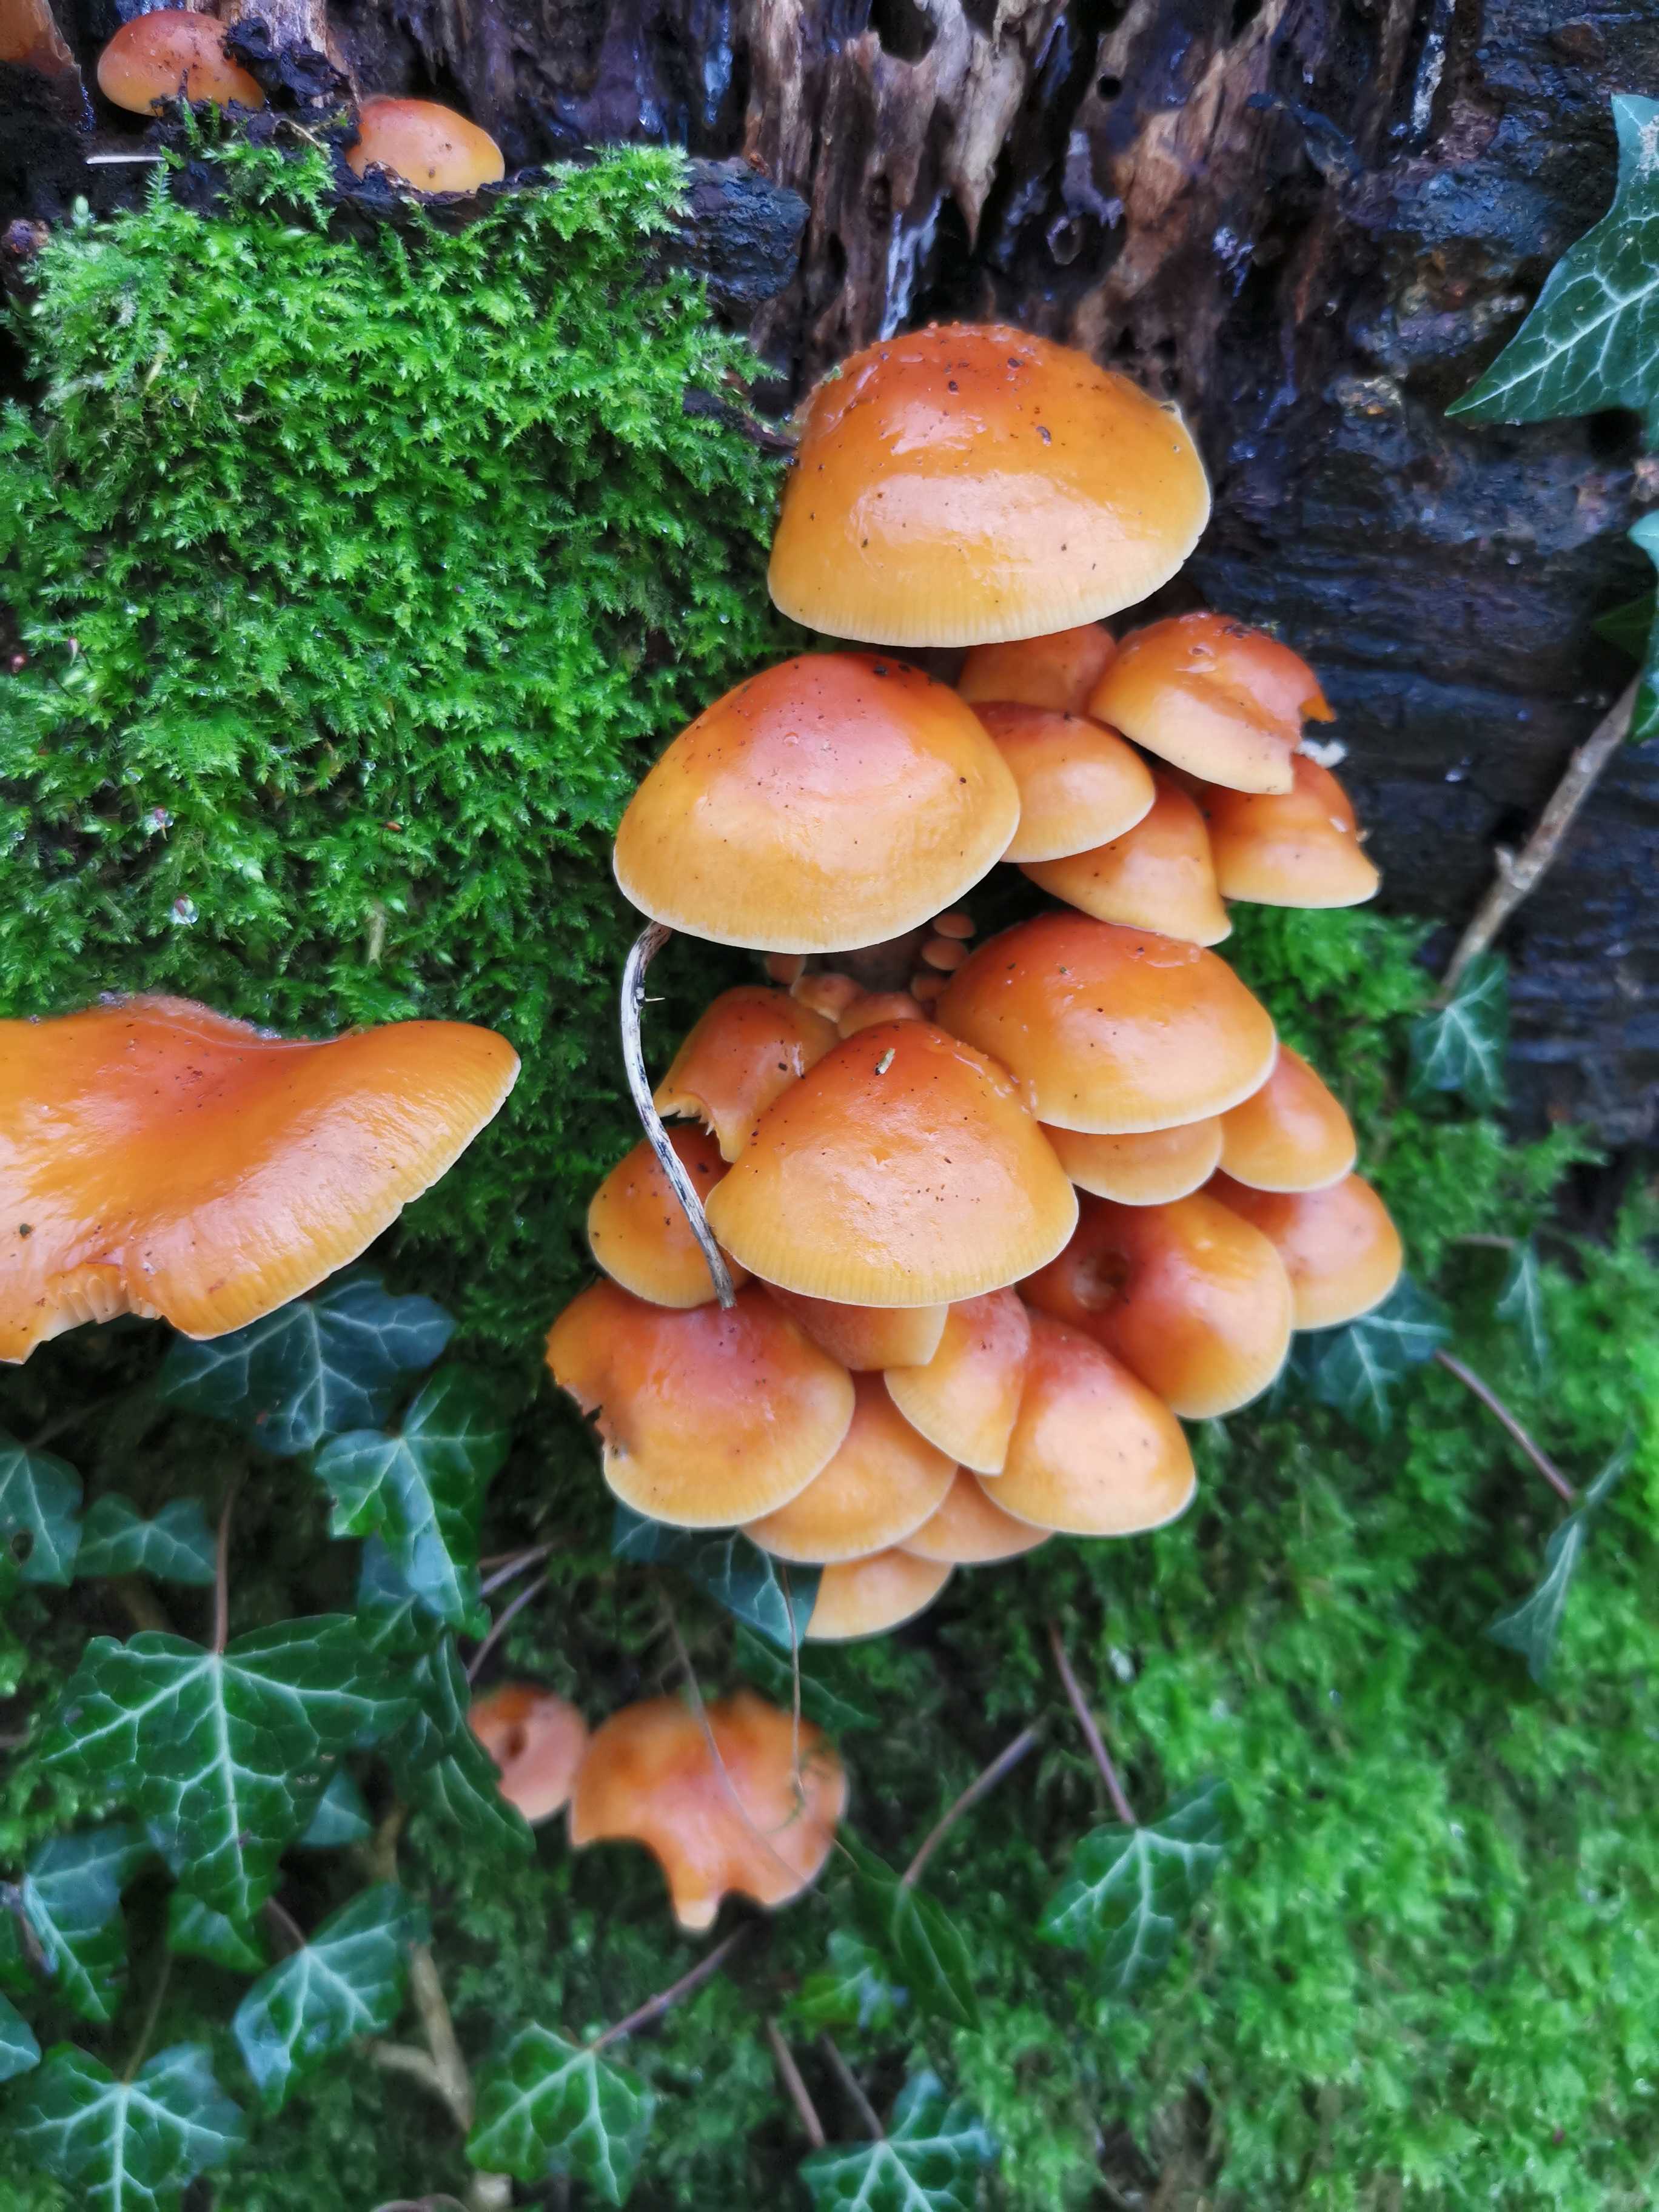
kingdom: Fungi
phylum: Basidiomycota
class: Agaricomycetes
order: Agaricales
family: Physalacriaceae
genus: Flammulina
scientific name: Flammulina velutipes
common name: gul fløjlsfod
